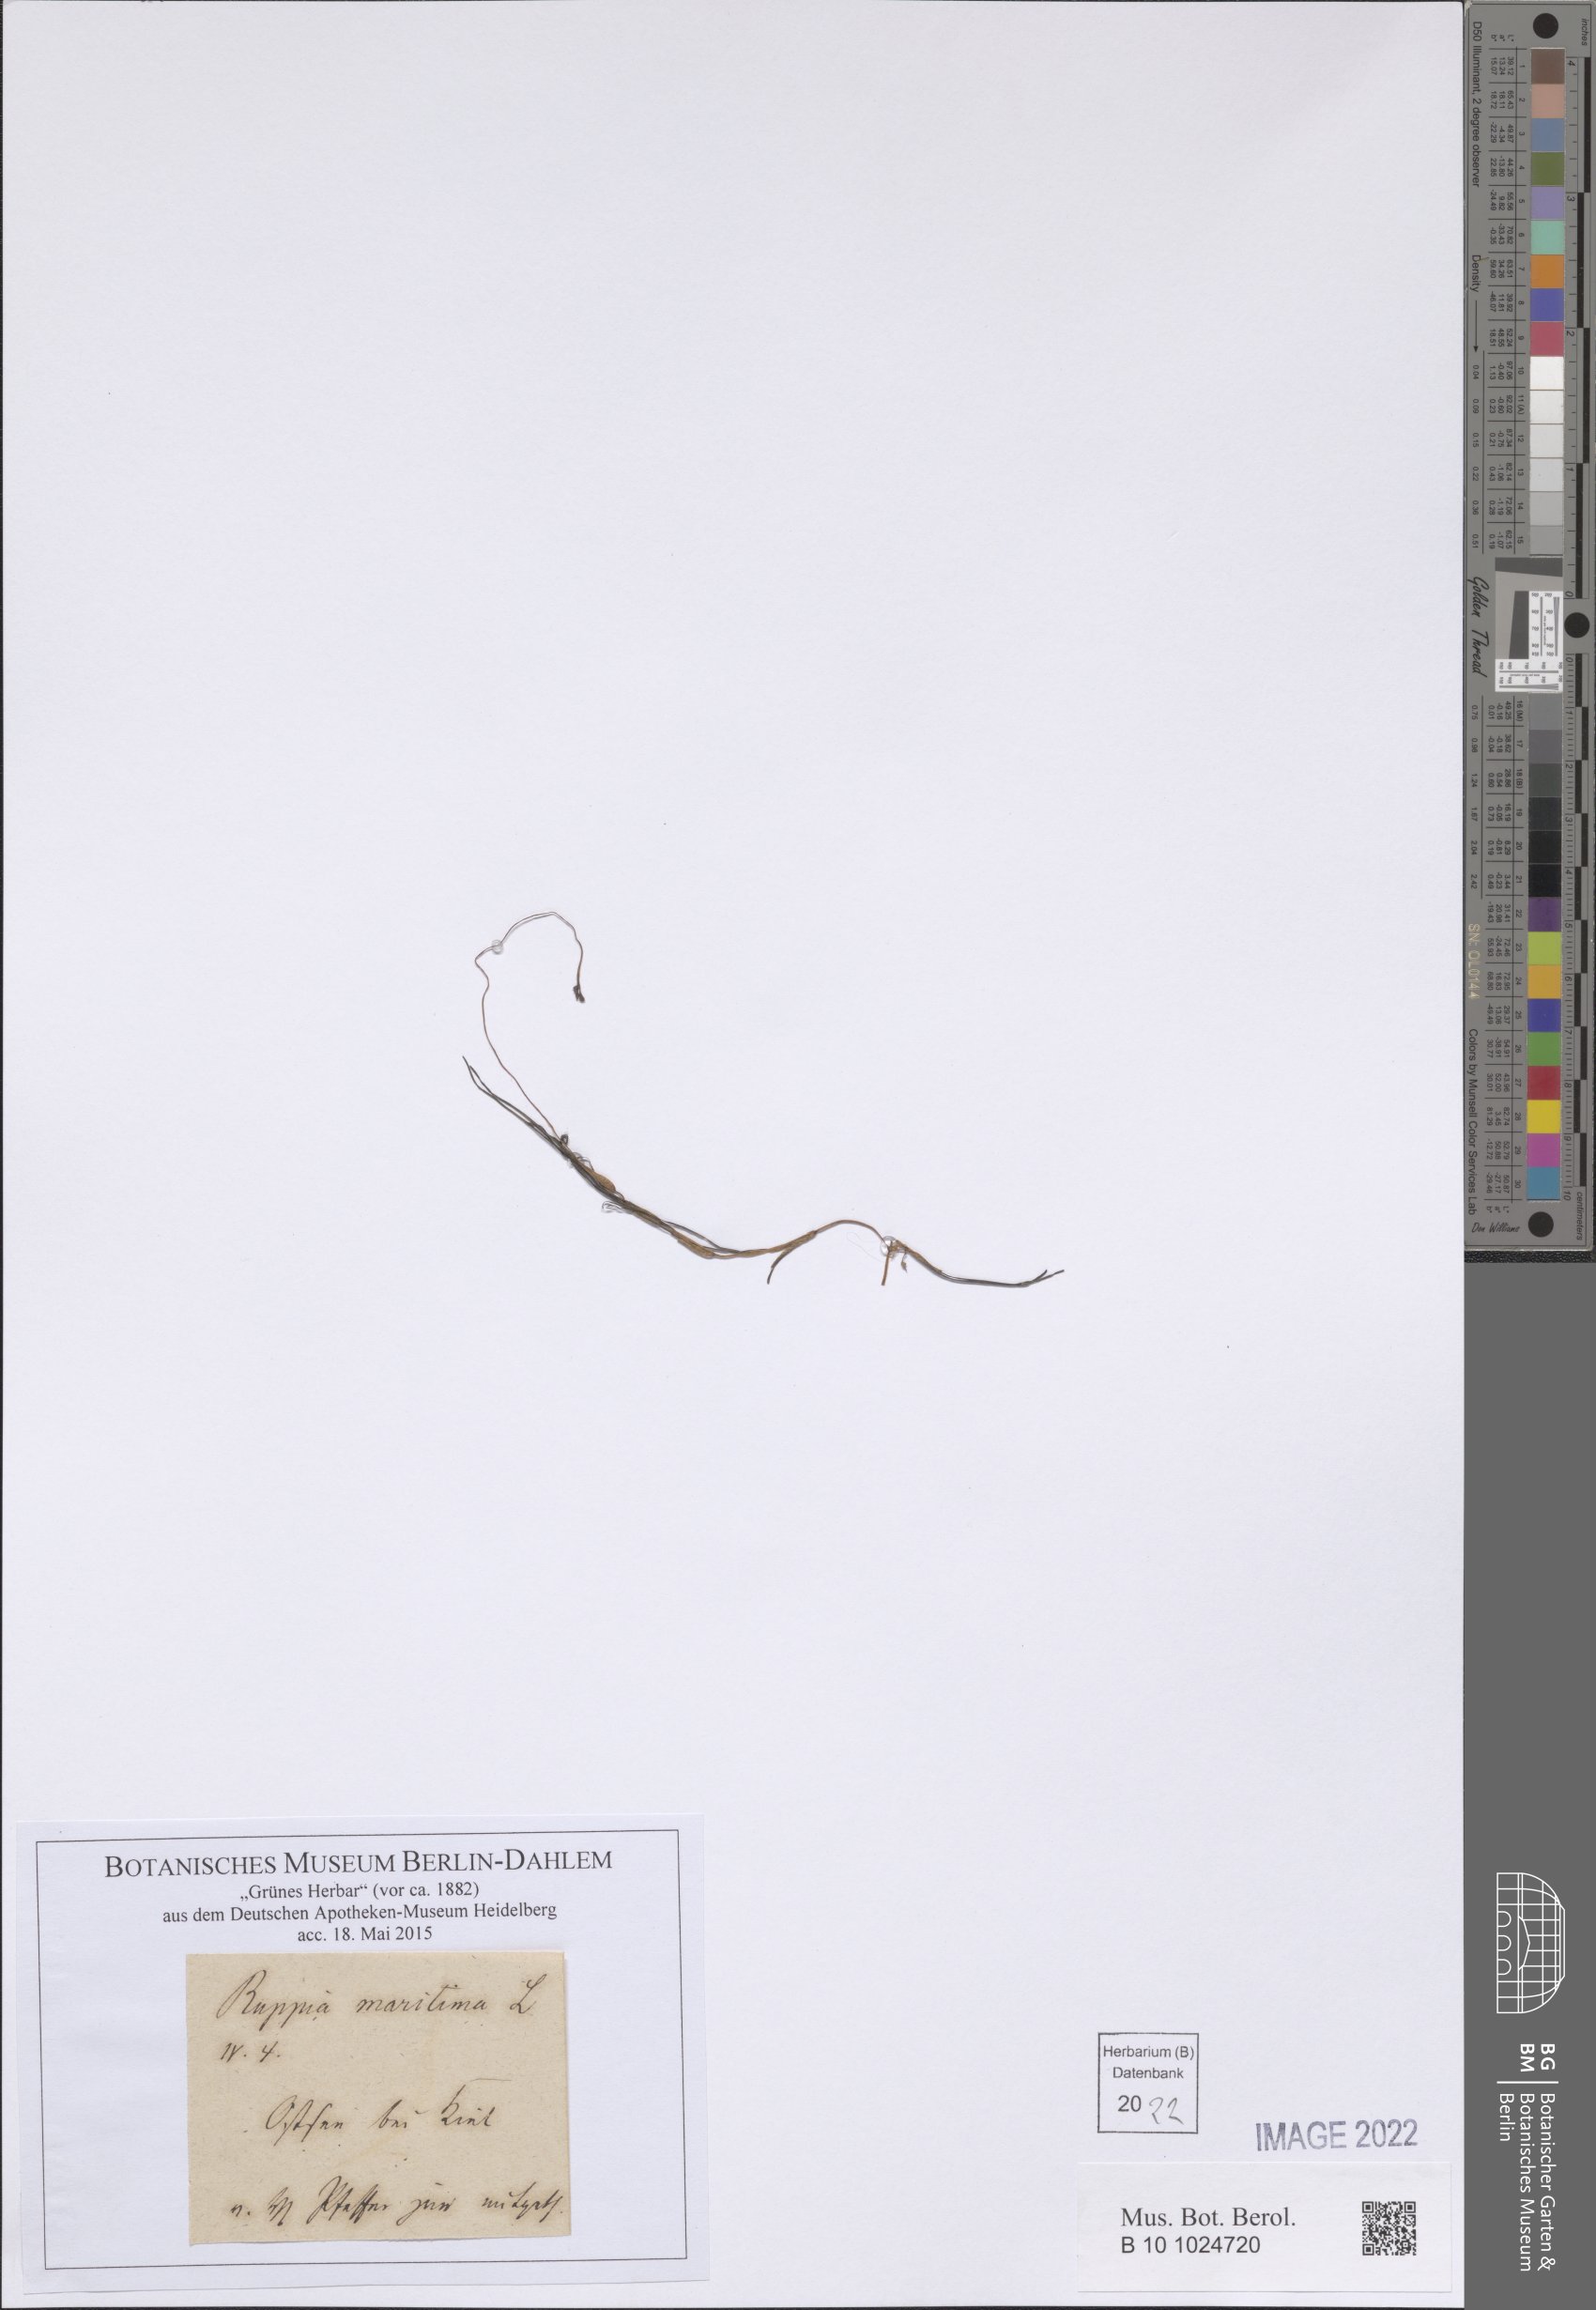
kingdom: Plantae
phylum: Tracheophyta
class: Liliopsida
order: Alismatales
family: Ruppiaceae
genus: Ruppia
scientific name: Ruppia maritima
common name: Beaked tasselweed
